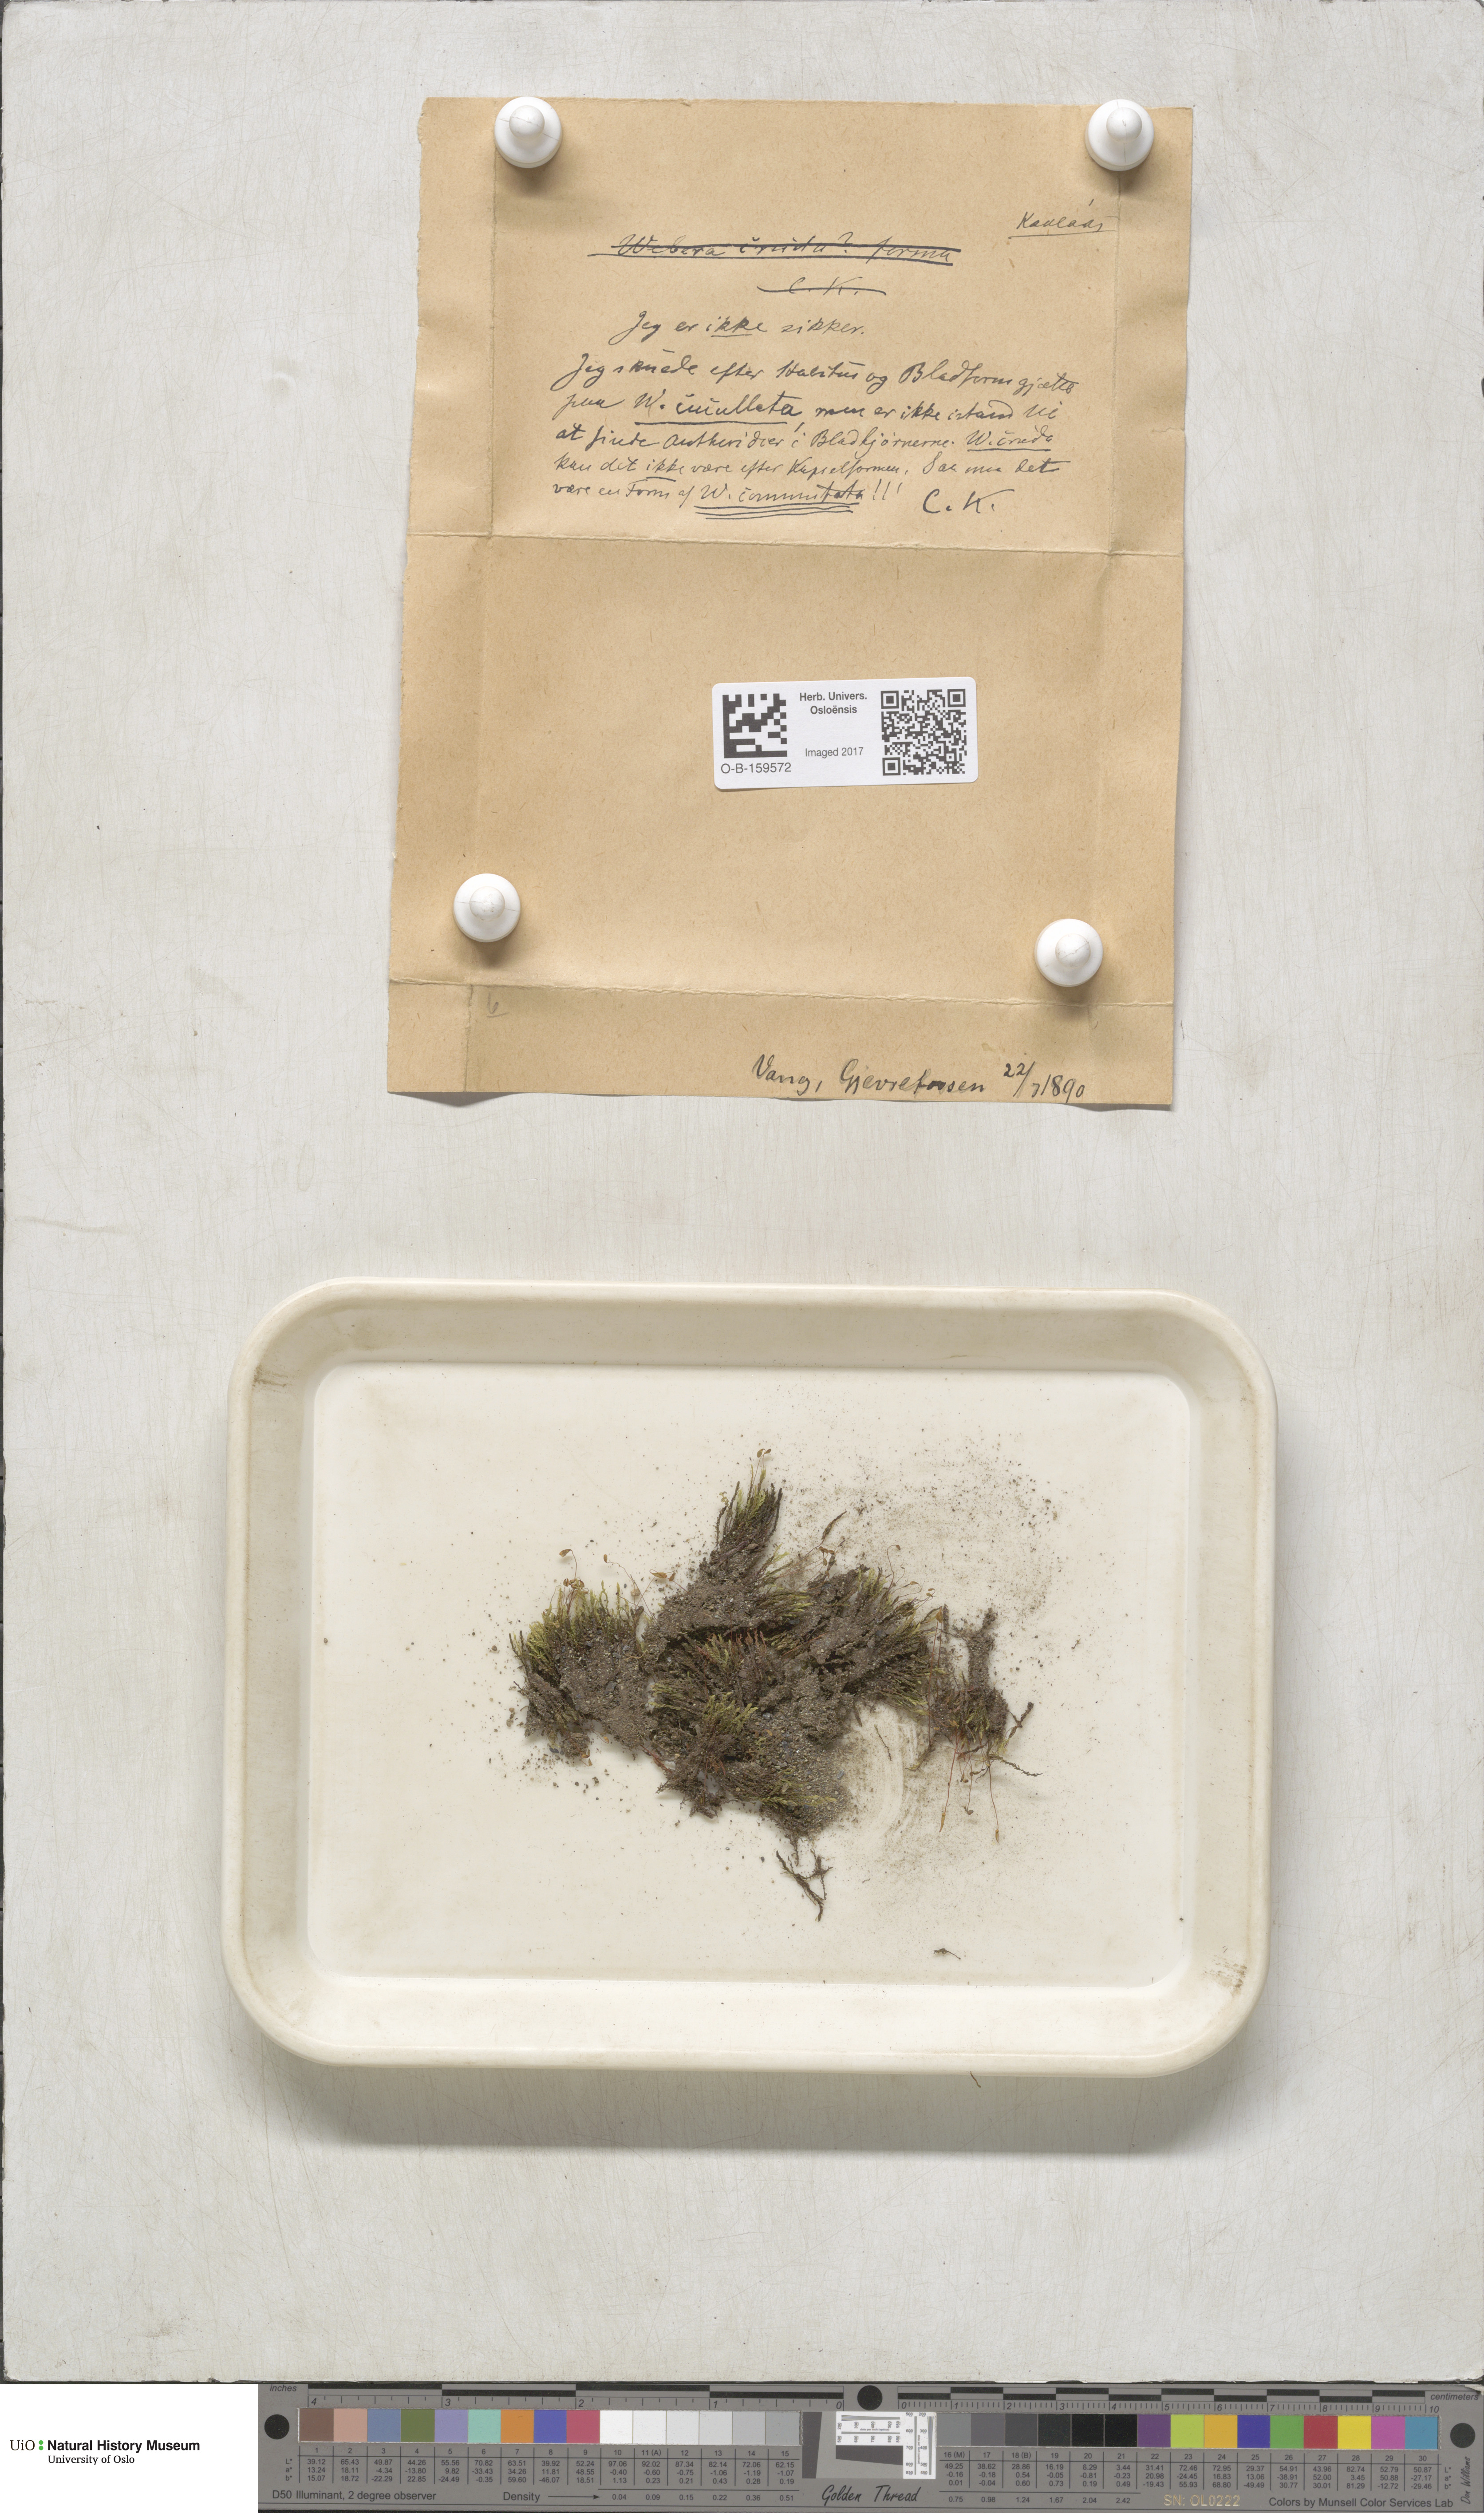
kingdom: Plantae
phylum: Bryophyta
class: Bryopsida
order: Bryales
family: Mniaceae
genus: Pohlia
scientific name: Pohlia drummondii
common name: Drummond's nodding moss
